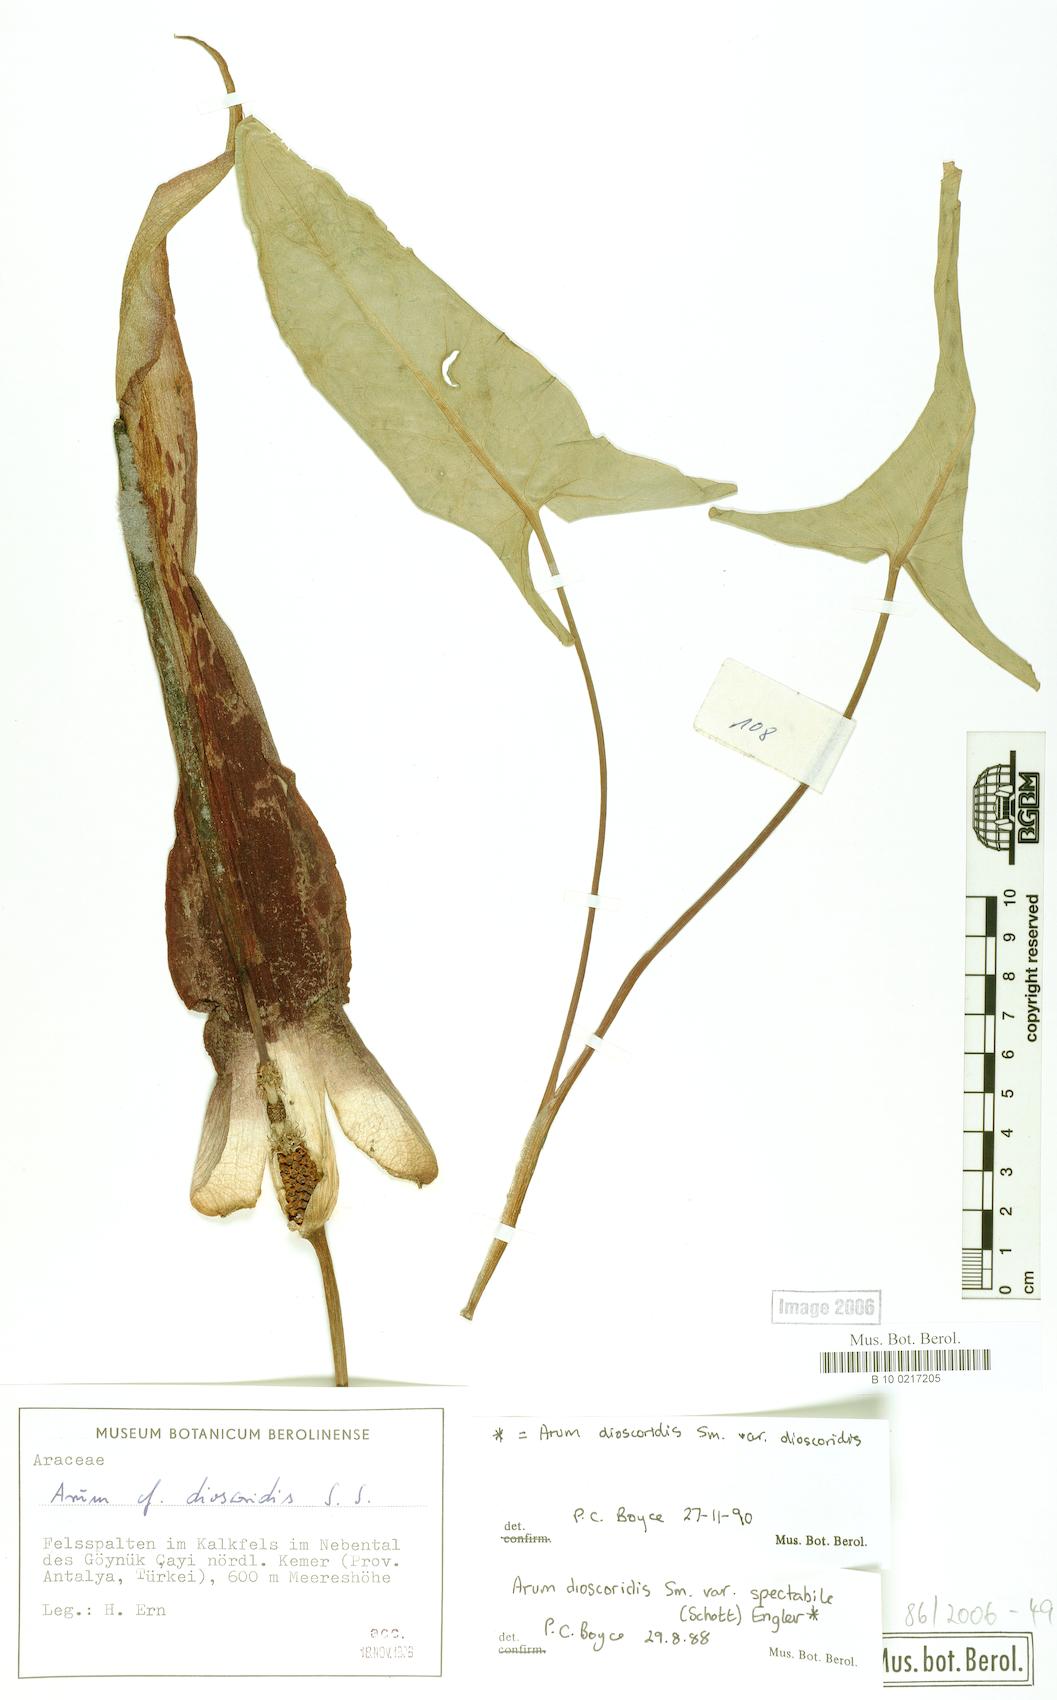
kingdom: Plantae
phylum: Tracheophyta
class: Liliopsida
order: Alismatales
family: Araceae
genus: Arum
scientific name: Arum dioscoridis
